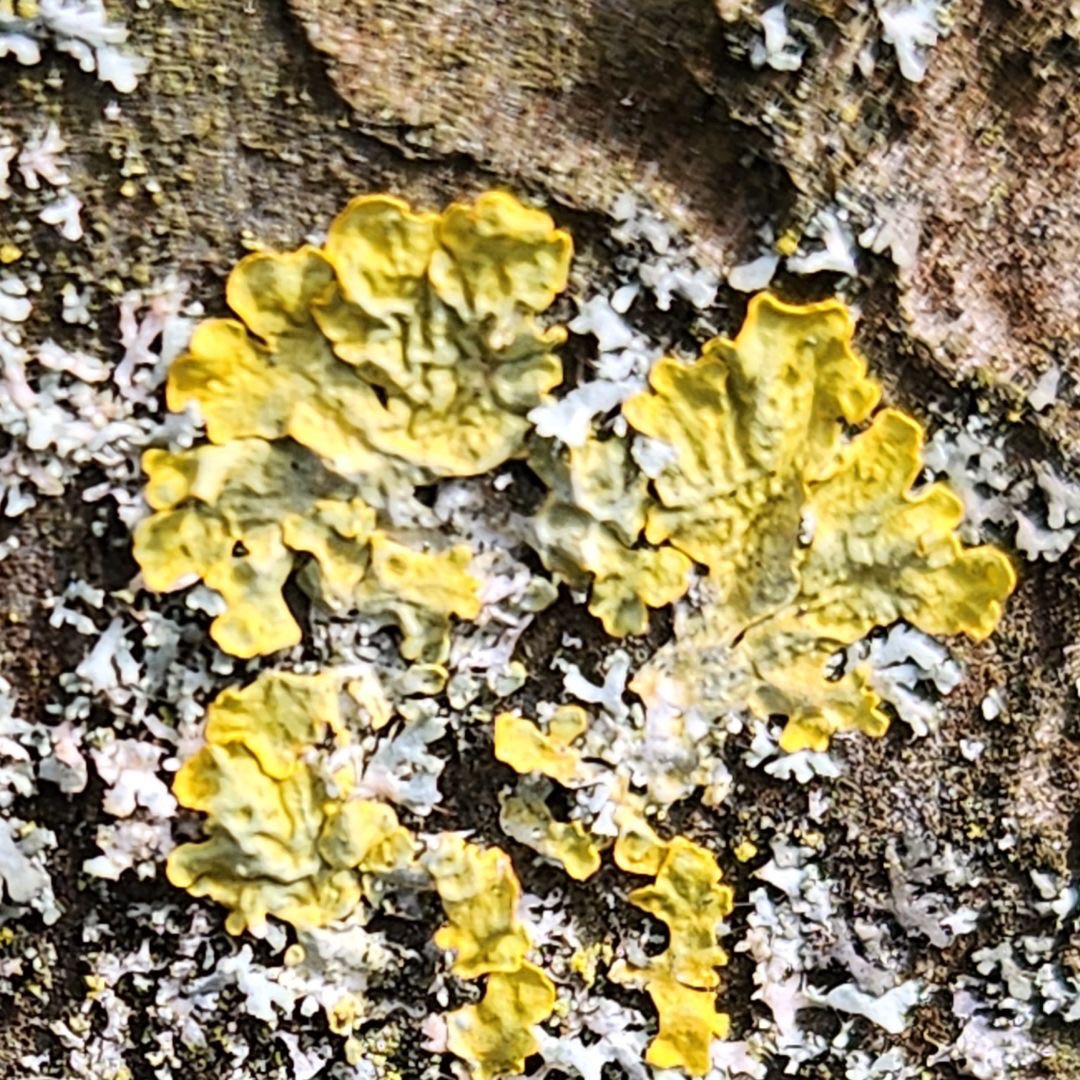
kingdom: Fungi
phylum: Ascomycota
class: Lecanoromycetes
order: Teloschistales
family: Teloschistaceae
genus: Xanthoria
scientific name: Xanthoria parietina
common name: Almindelig væggelav
